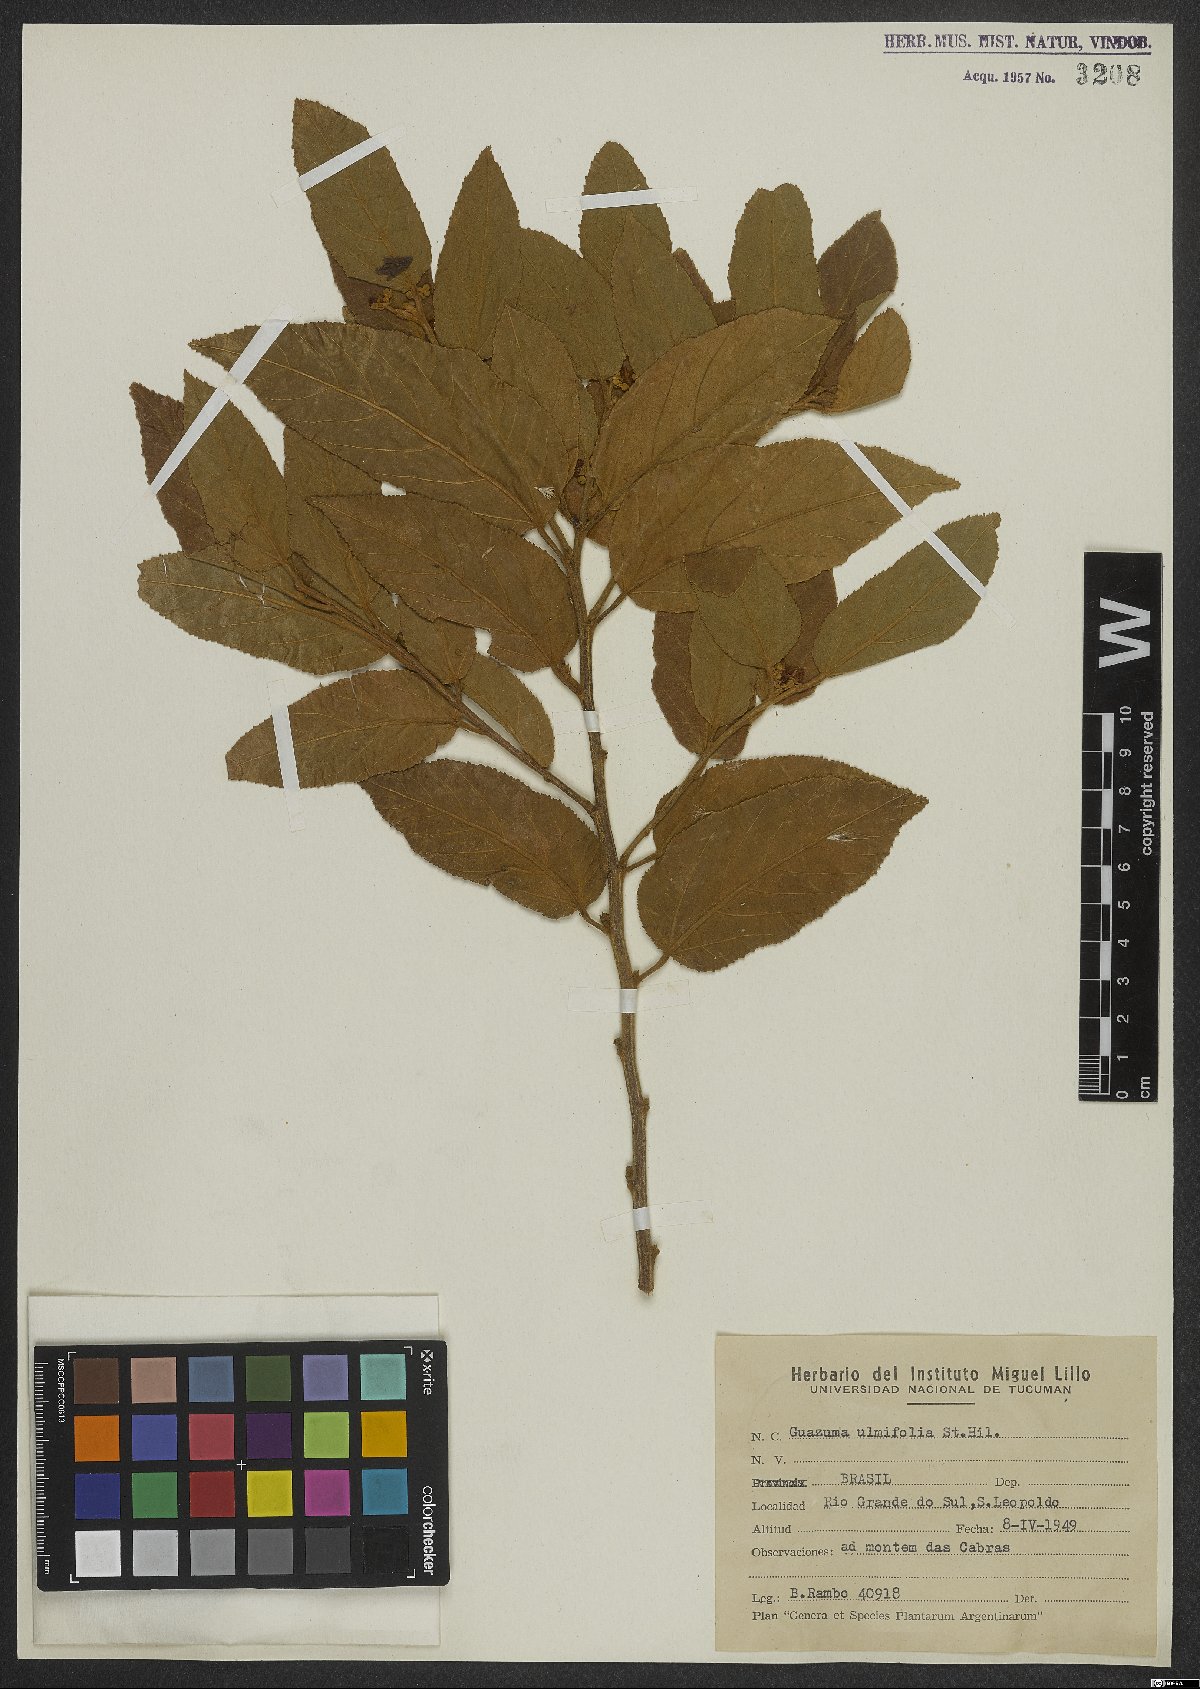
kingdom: Plantae
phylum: Tracheophyta
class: Magnoliopsida
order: Malvales
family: Malvaceae
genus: Guazuma
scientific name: Guazuma ulmifolia
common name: Bastard-cedar
